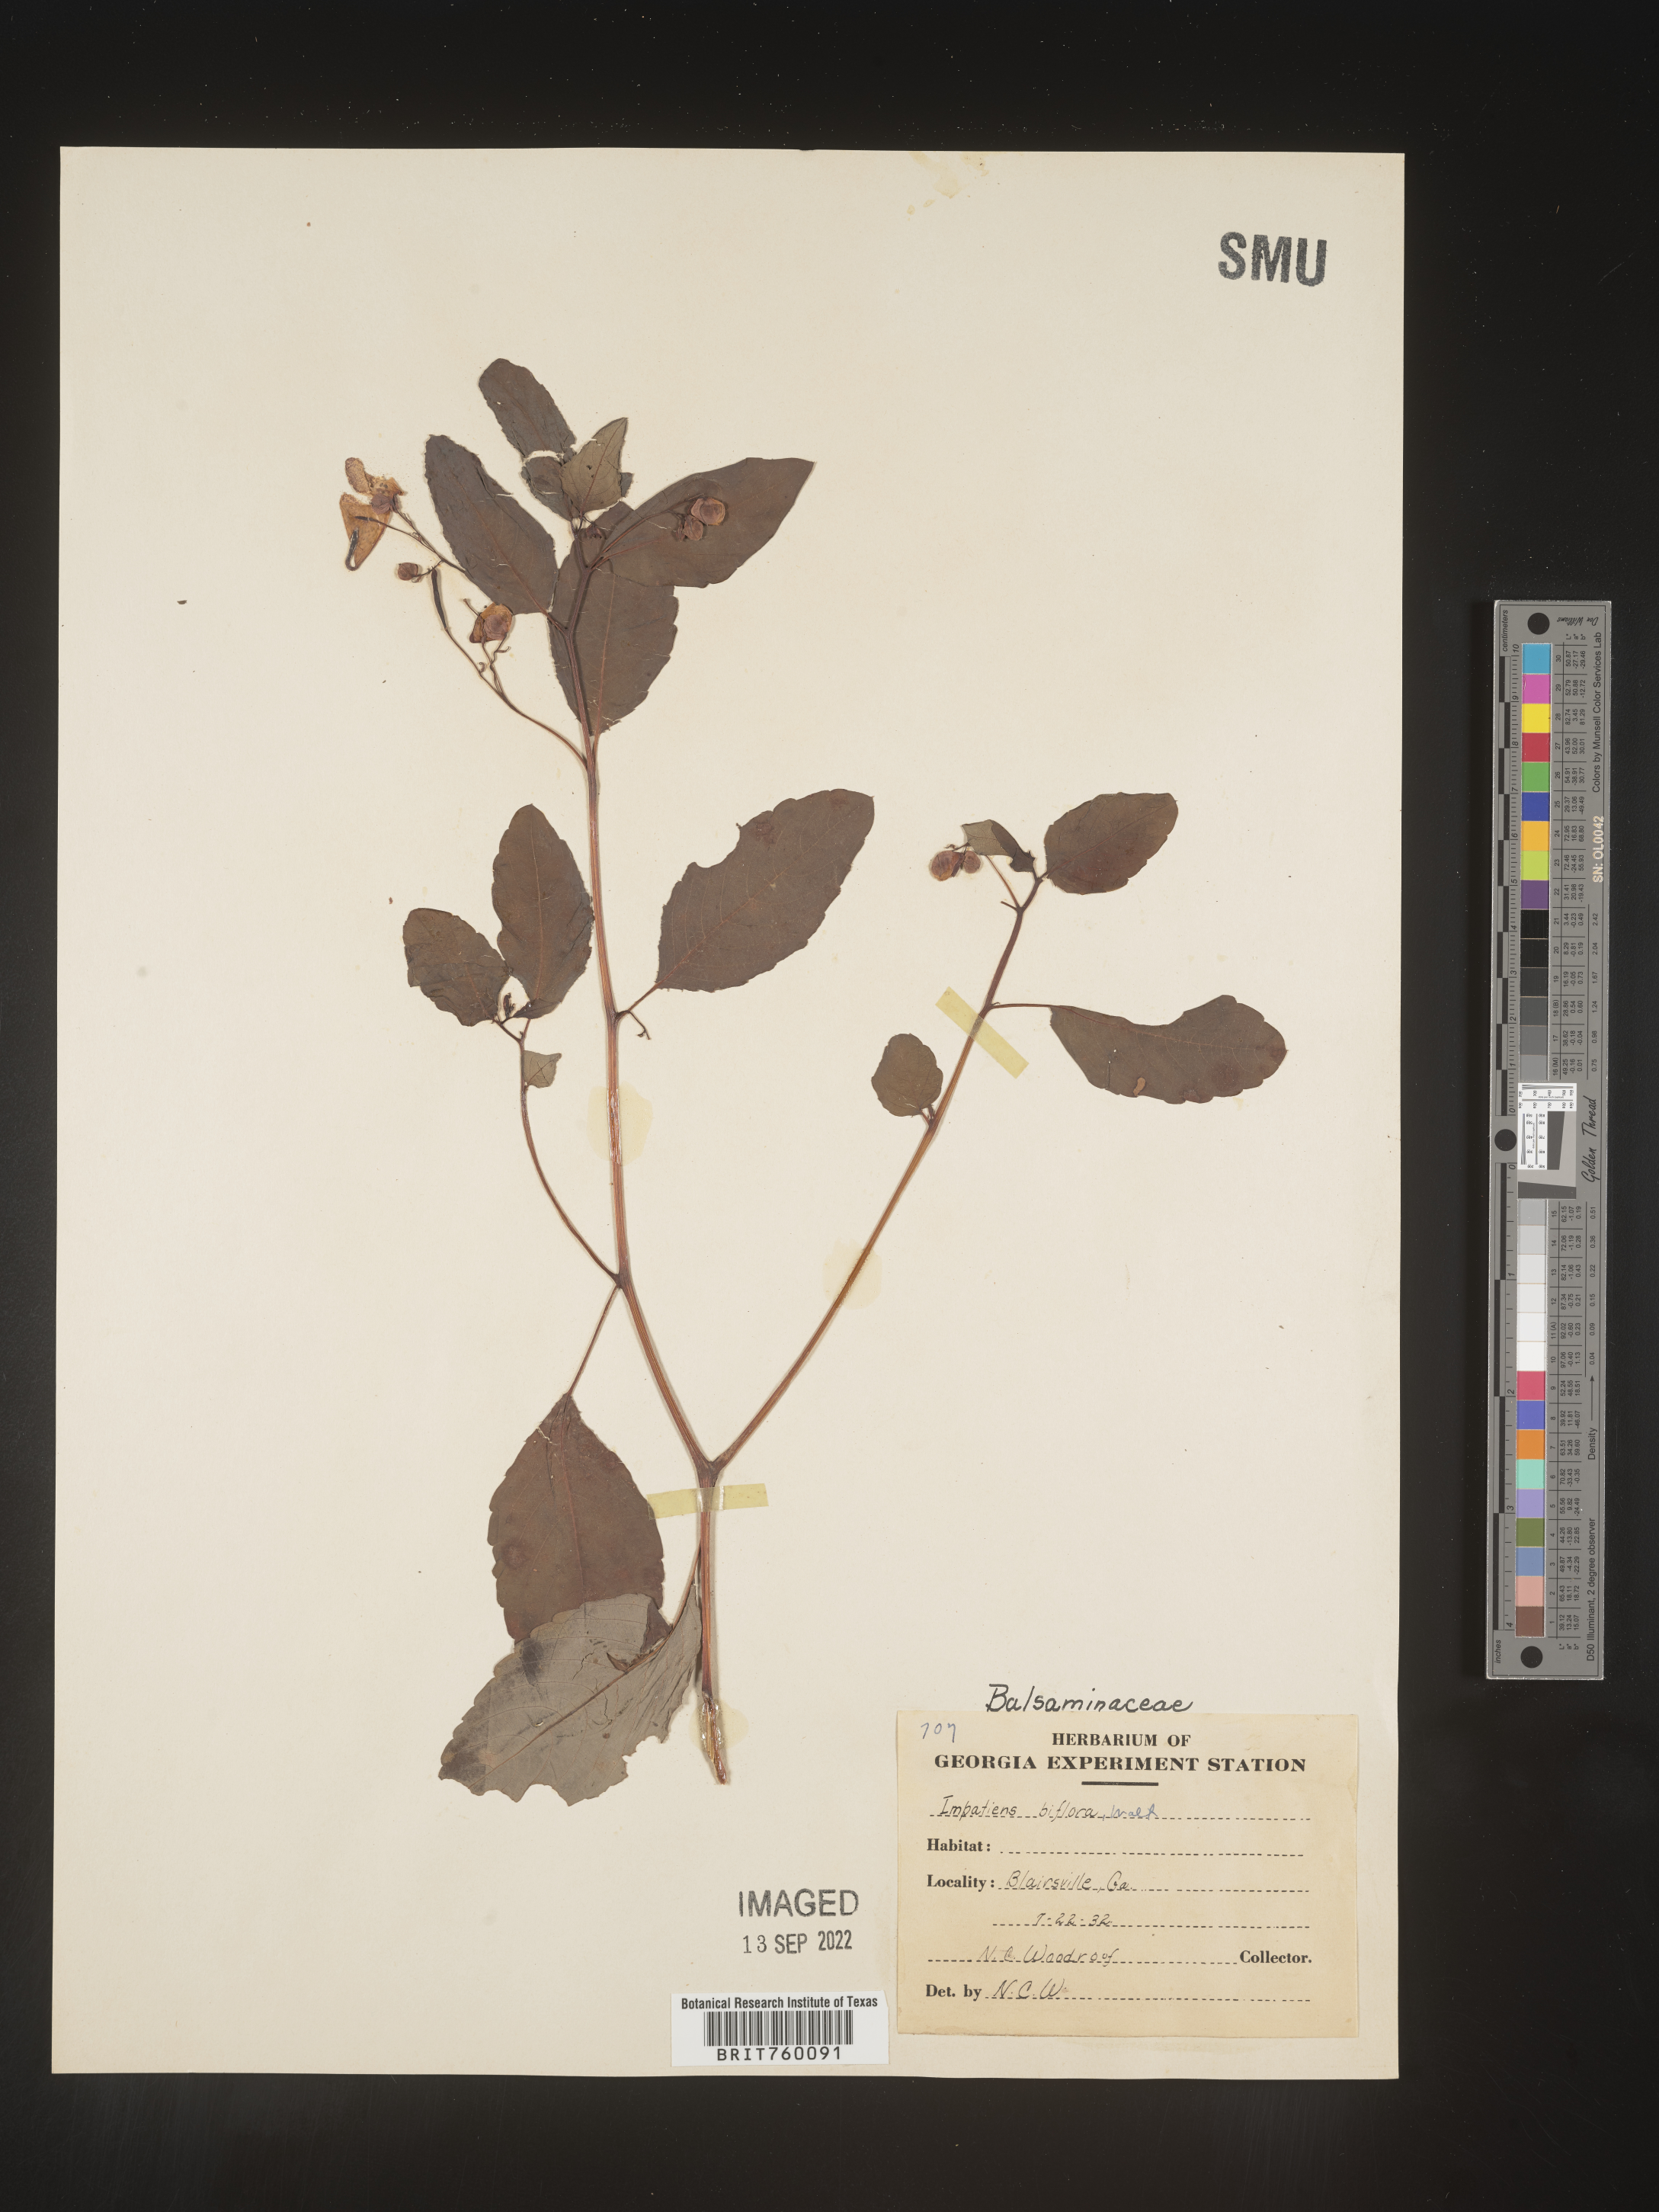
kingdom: Plantae
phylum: Tracheophyta
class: Magnoliopsida
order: Ericales
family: Balsaminaceae
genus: Impatiens
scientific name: Impatiens capensis
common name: Orange balsam
